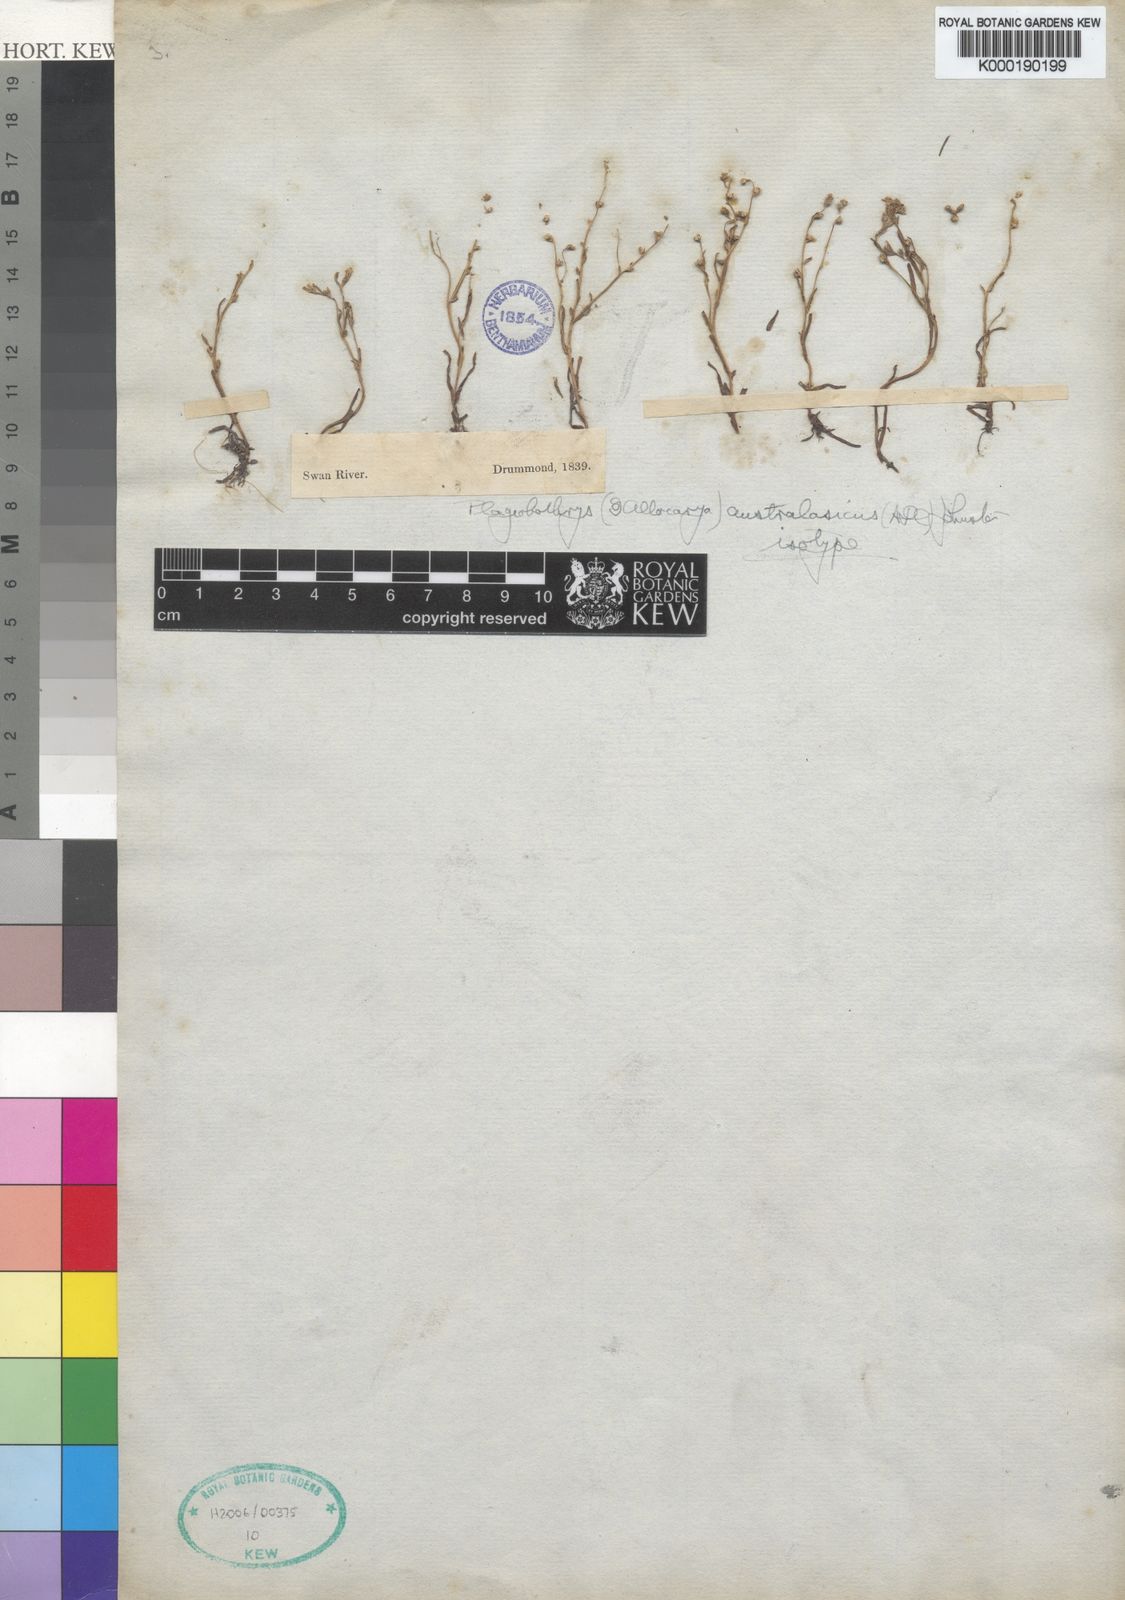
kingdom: Plantae
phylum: Tracheophyta
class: Magnoliopsida
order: Boraginales
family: Boraginaceae
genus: Plagiobothrys
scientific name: Plagiobothrys australasicus
